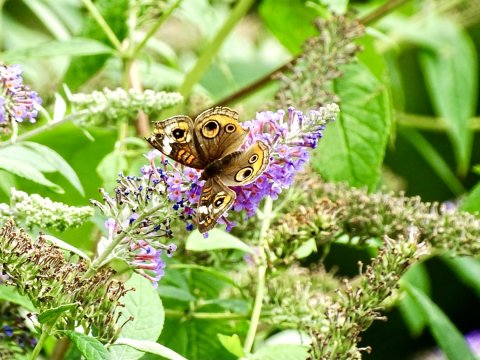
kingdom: Animalia
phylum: Arthropoda
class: Insecta
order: Lepidoptera
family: Nymphalidae
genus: Junonia
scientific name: Junonia coenia
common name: Common Buckeye
